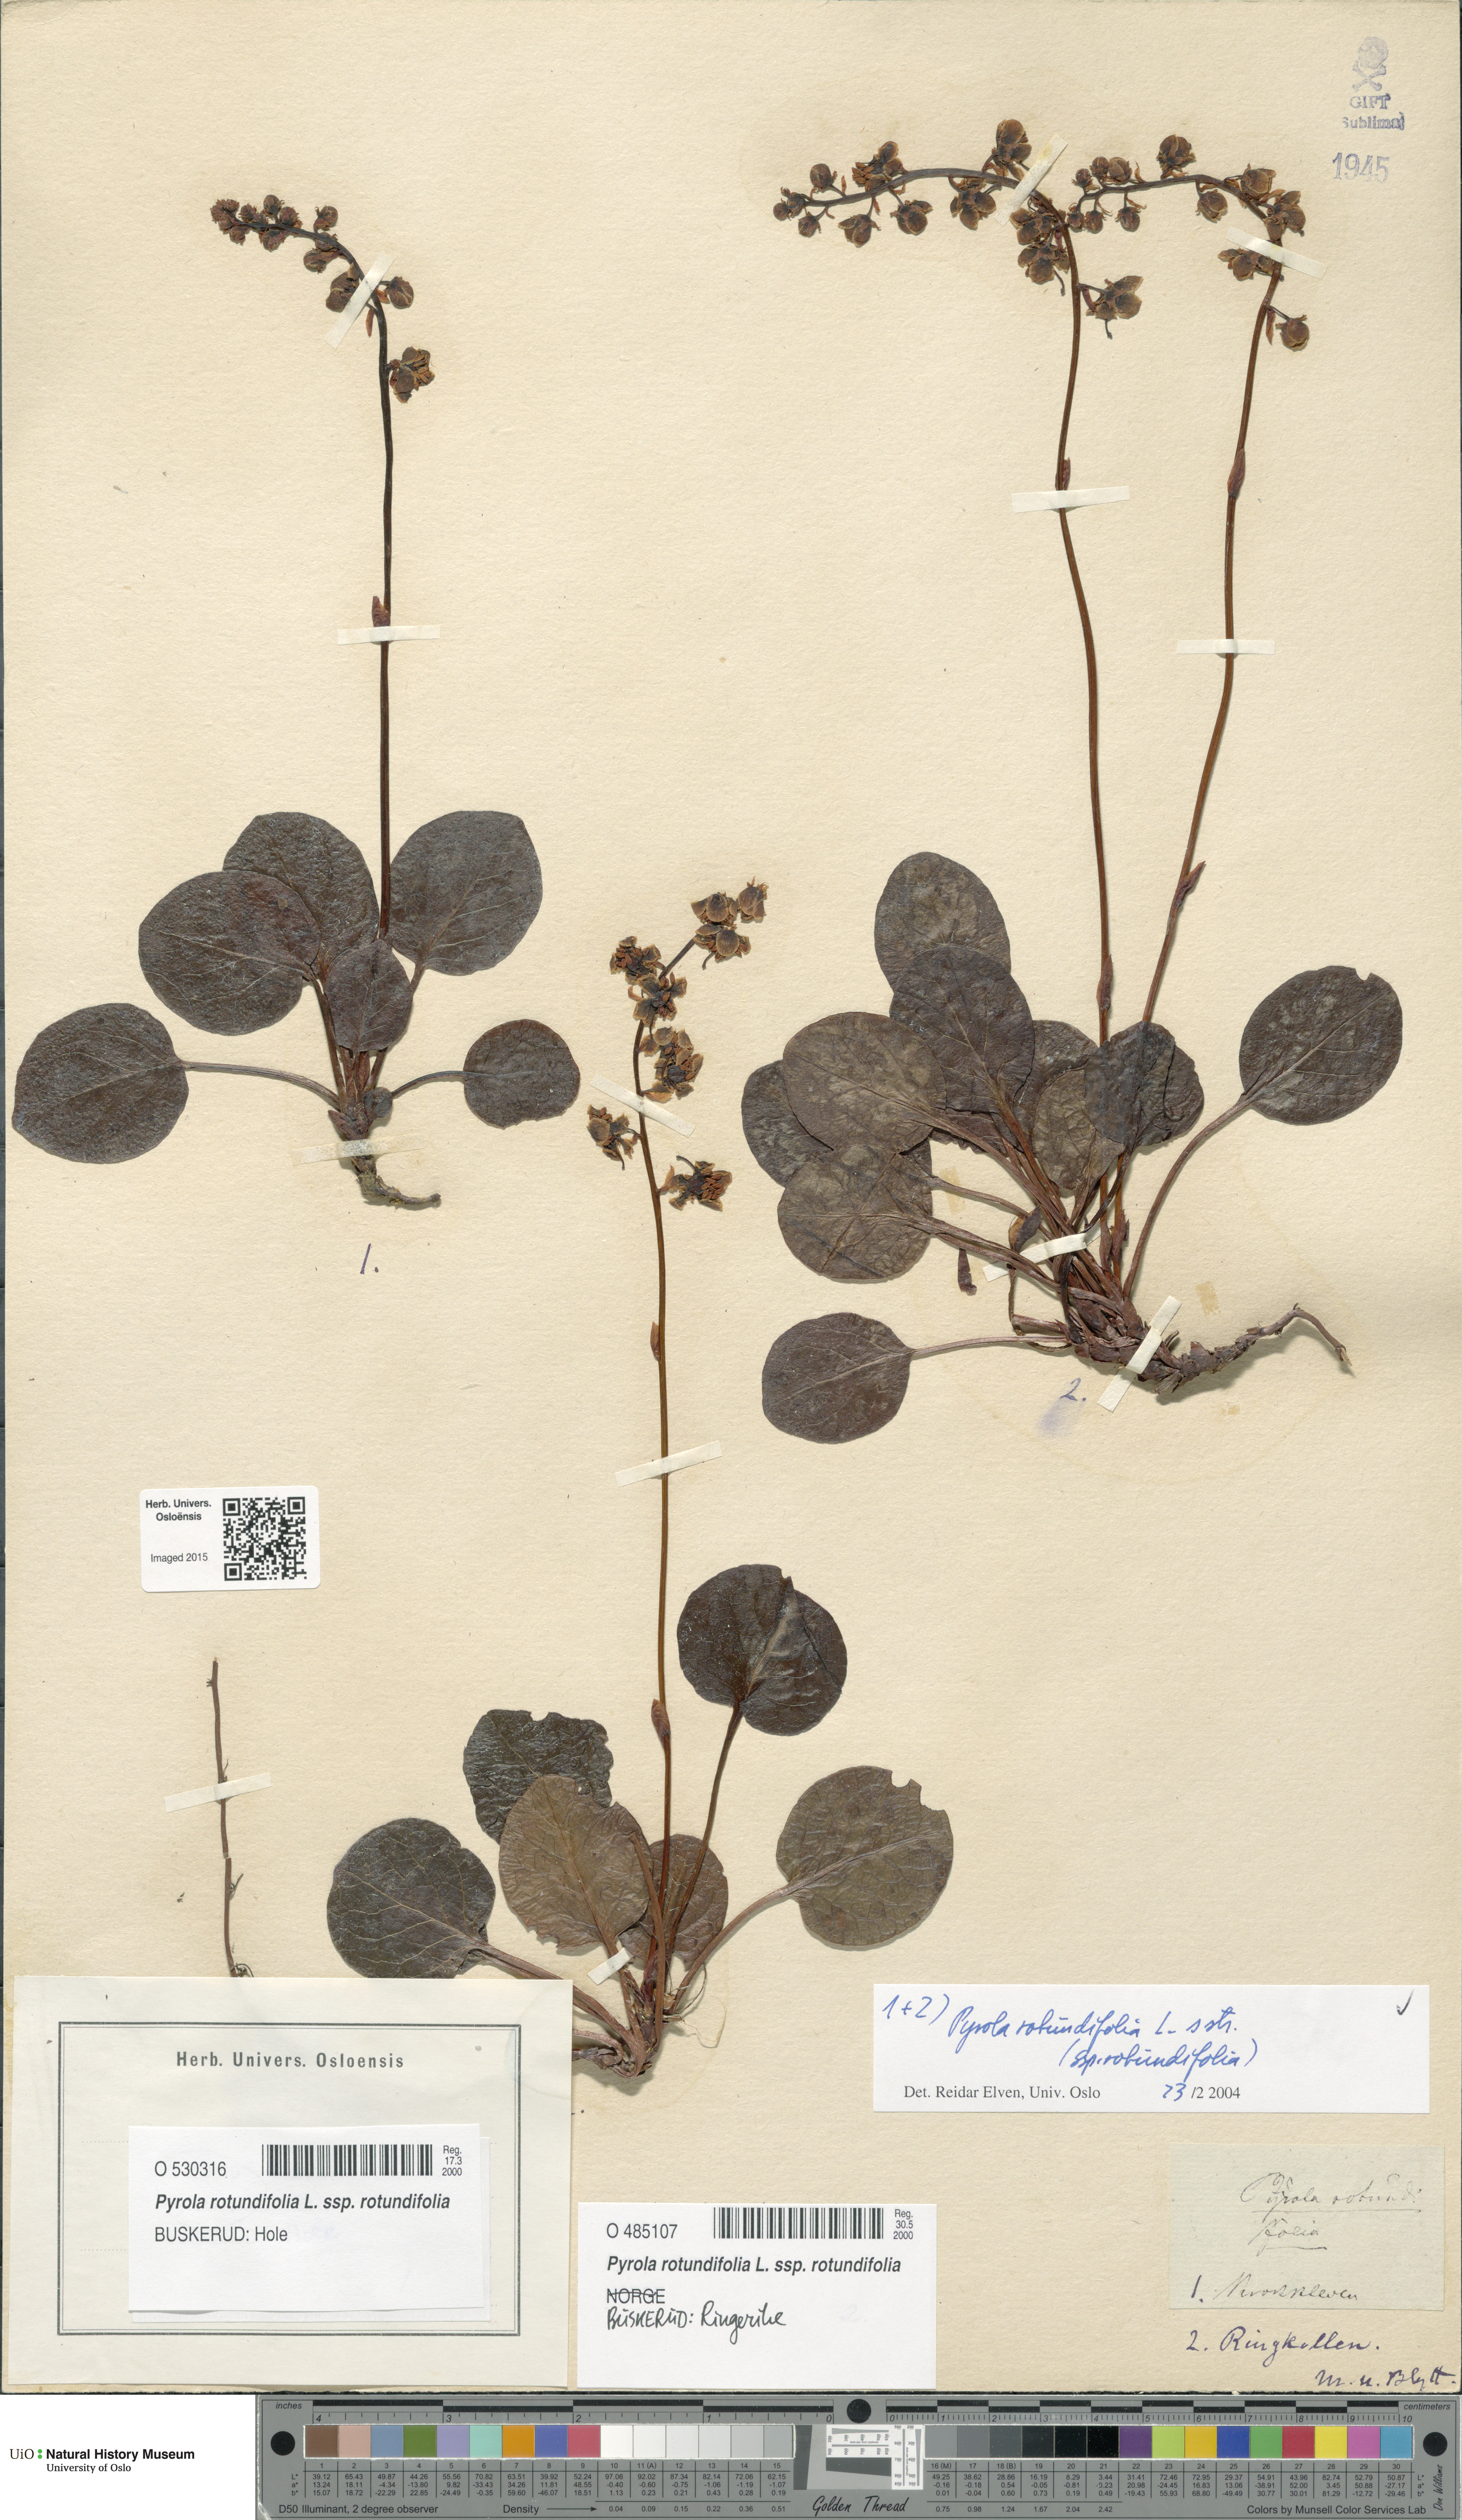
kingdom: Plantae
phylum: Tracheophyta
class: Magnoliopsida
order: Ericales
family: Ericaceae
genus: Pyrola
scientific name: Pyrola rotundifolia
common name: Round-leaved wintergreen
